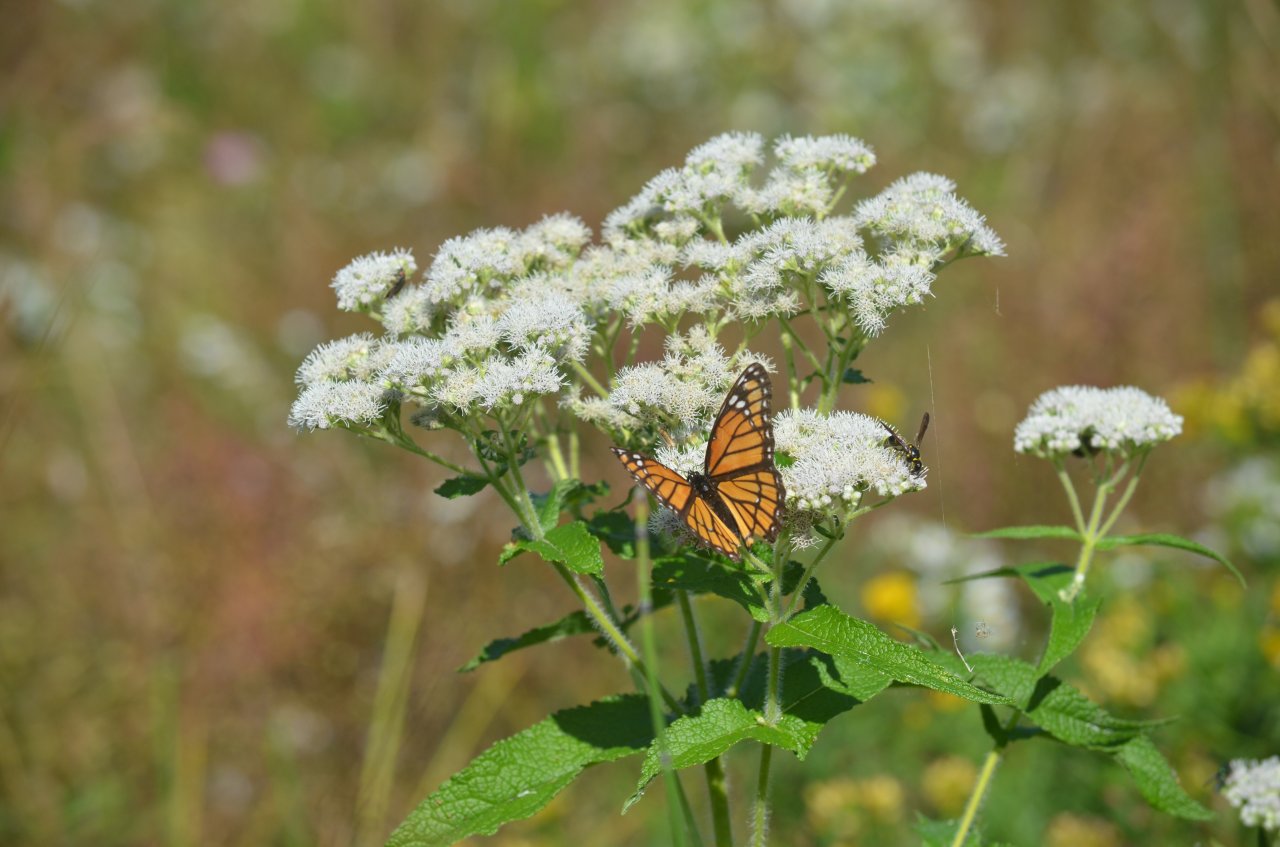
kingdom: Animalia
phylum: Arthropoda
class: Insecta
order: Lepidoptera
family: Nymphalidae
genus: Limenitis
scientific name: Limenitis archippus
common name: Viceroy
